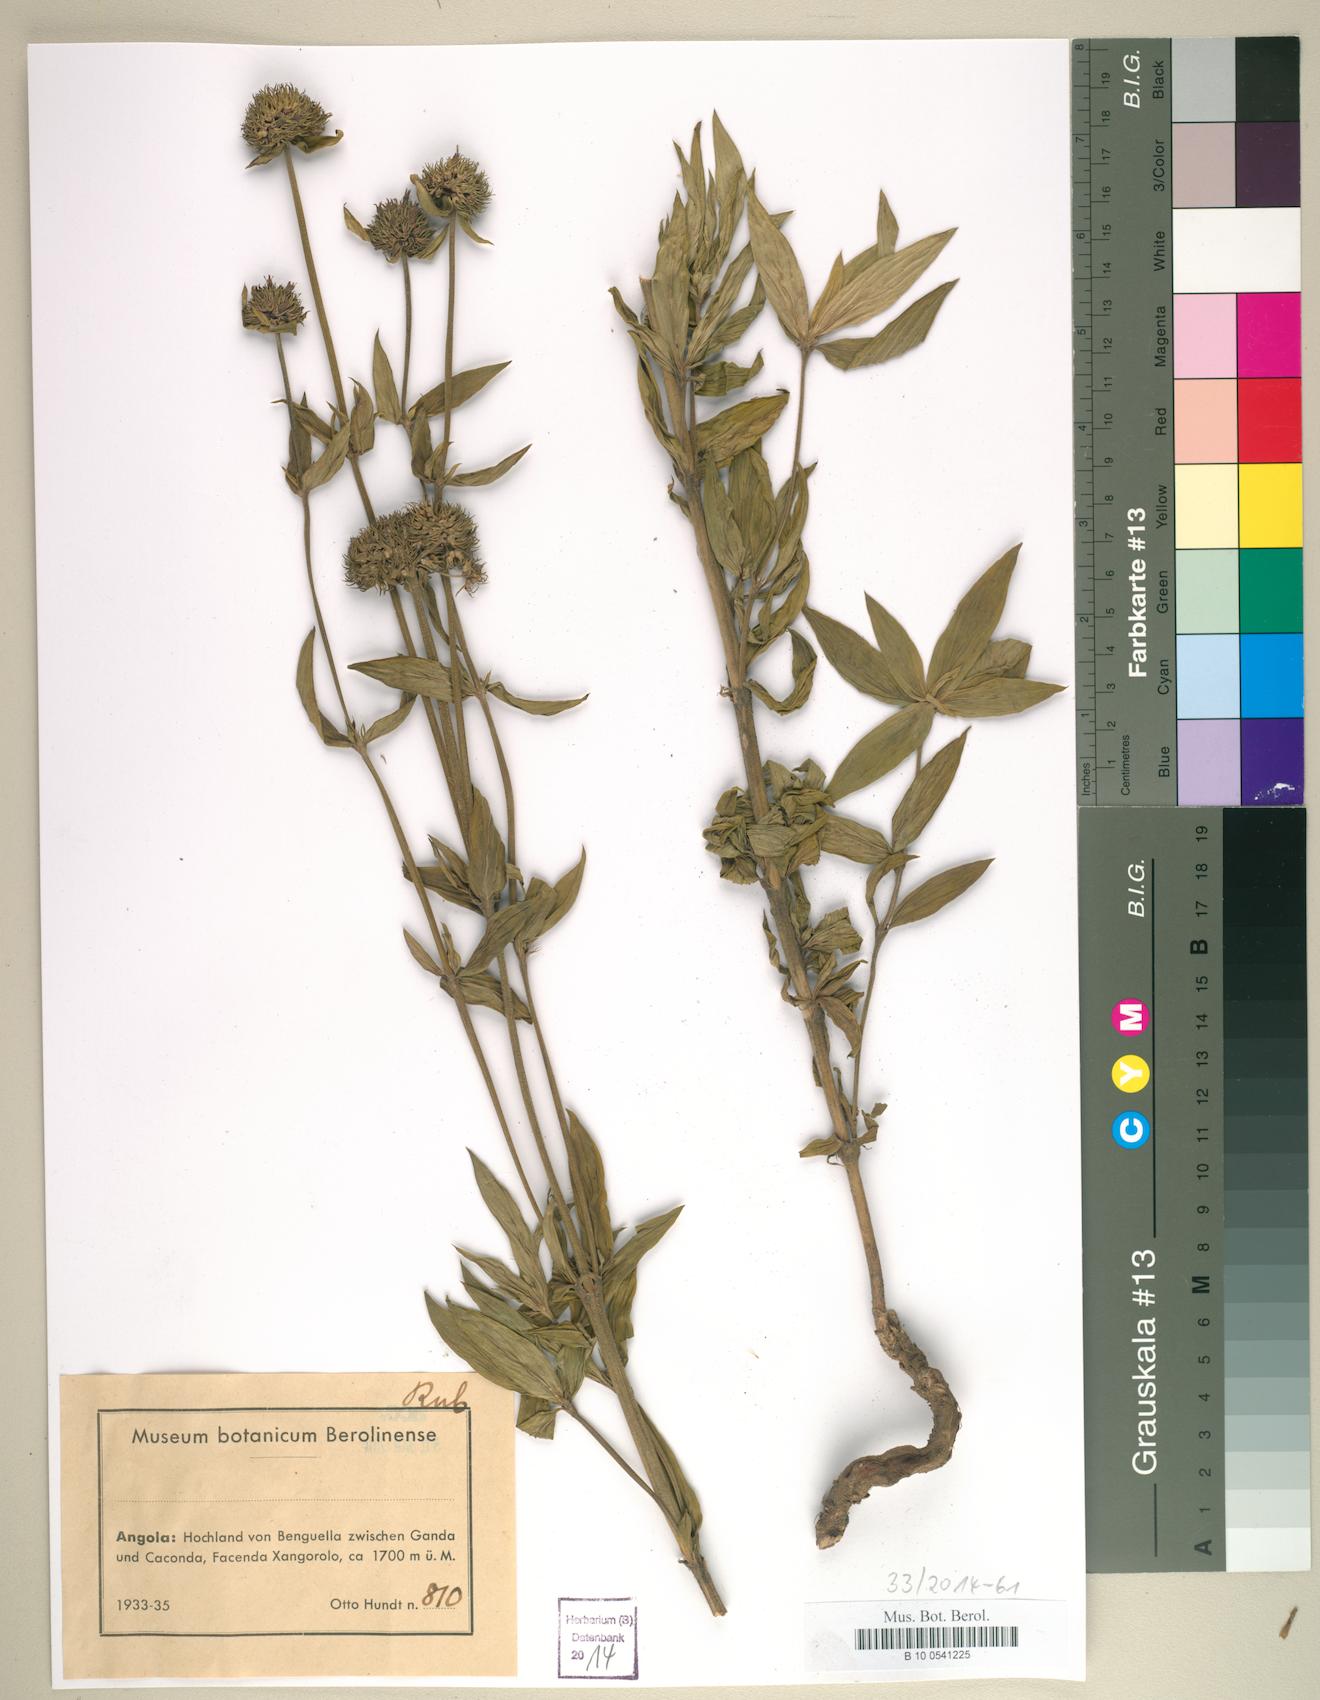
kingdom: Plantae
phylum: Tracheophyta
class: Magnoliopsida
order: Gentianales
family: Rubiaceae
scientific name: Rubiaceae
